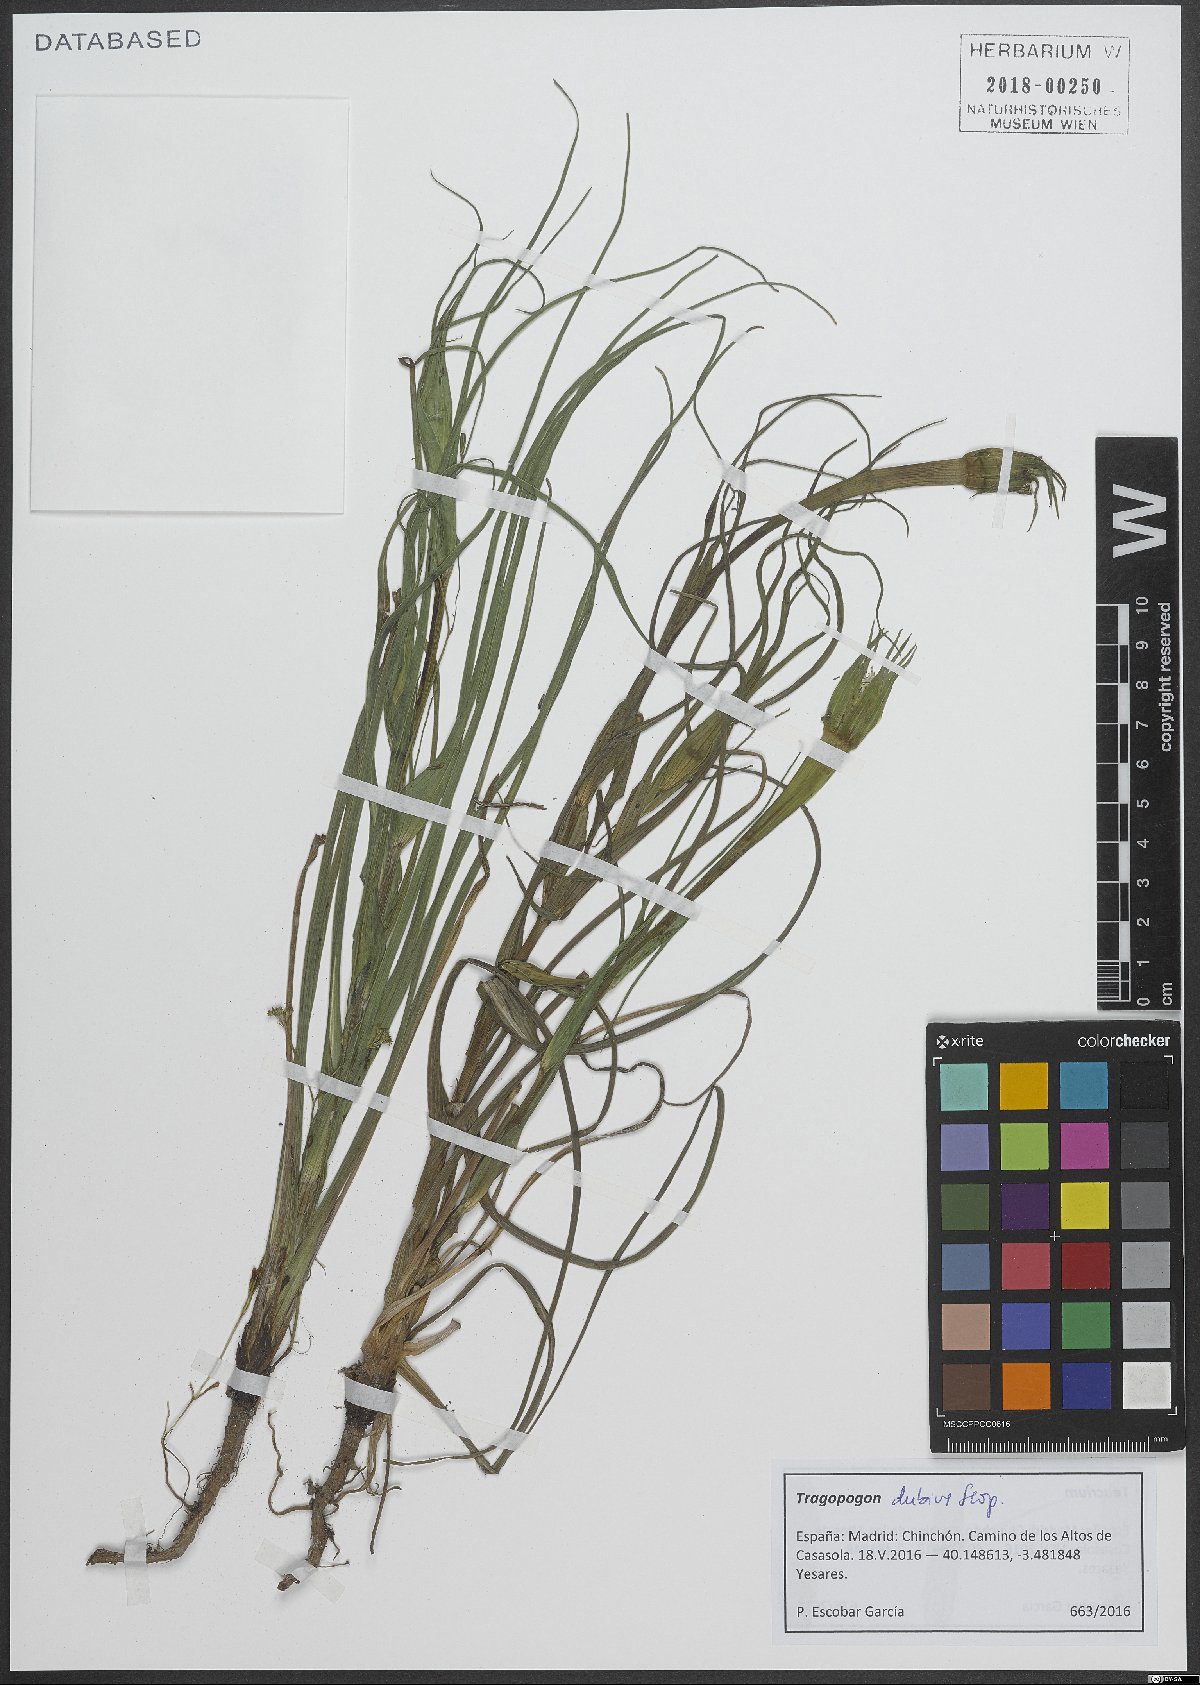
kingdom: Plantae
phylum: Tracheophyta
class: Magnoliopsida
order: Asterales
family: Asteraceae
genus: Tragopogon
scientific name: Tragopogon dubius
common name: Yellow salsify
